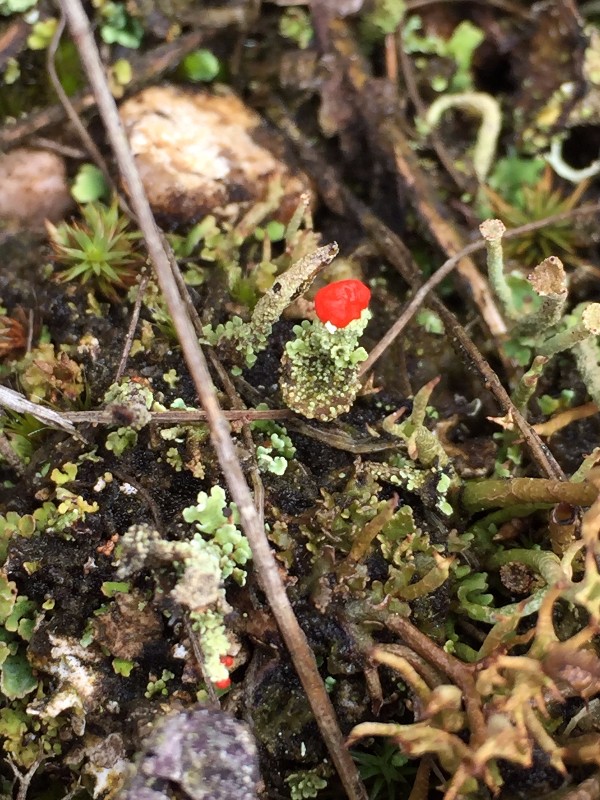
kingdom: Fungi
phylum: Ascomycota
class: Lecanoromycetes
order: Lecanorales
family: Cladoniaceae
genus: Cladonia
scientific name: Cladonia diversa
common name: rød bægerlav
